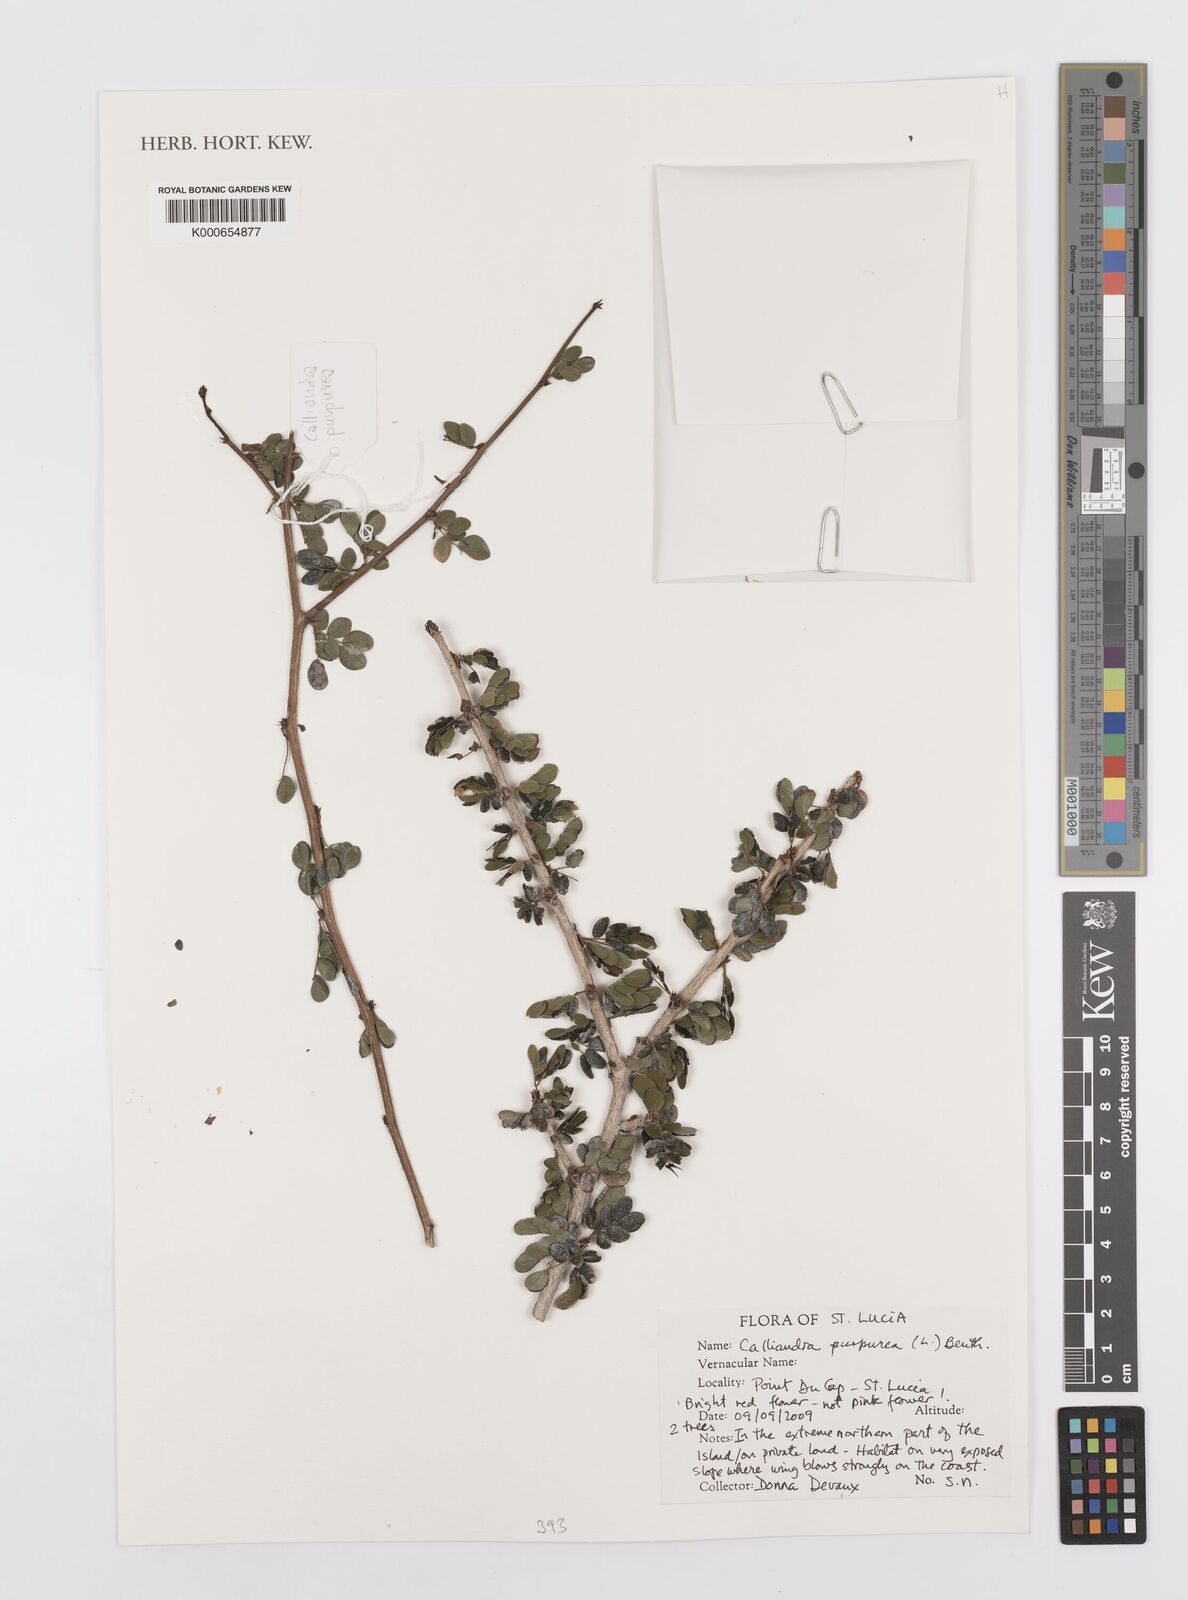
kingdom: Plantae
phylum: Tracheophyta
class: Magnoliopsida
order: Fabales
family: Fabaceae
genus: Calliandra
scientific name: Calliandra purpurea
